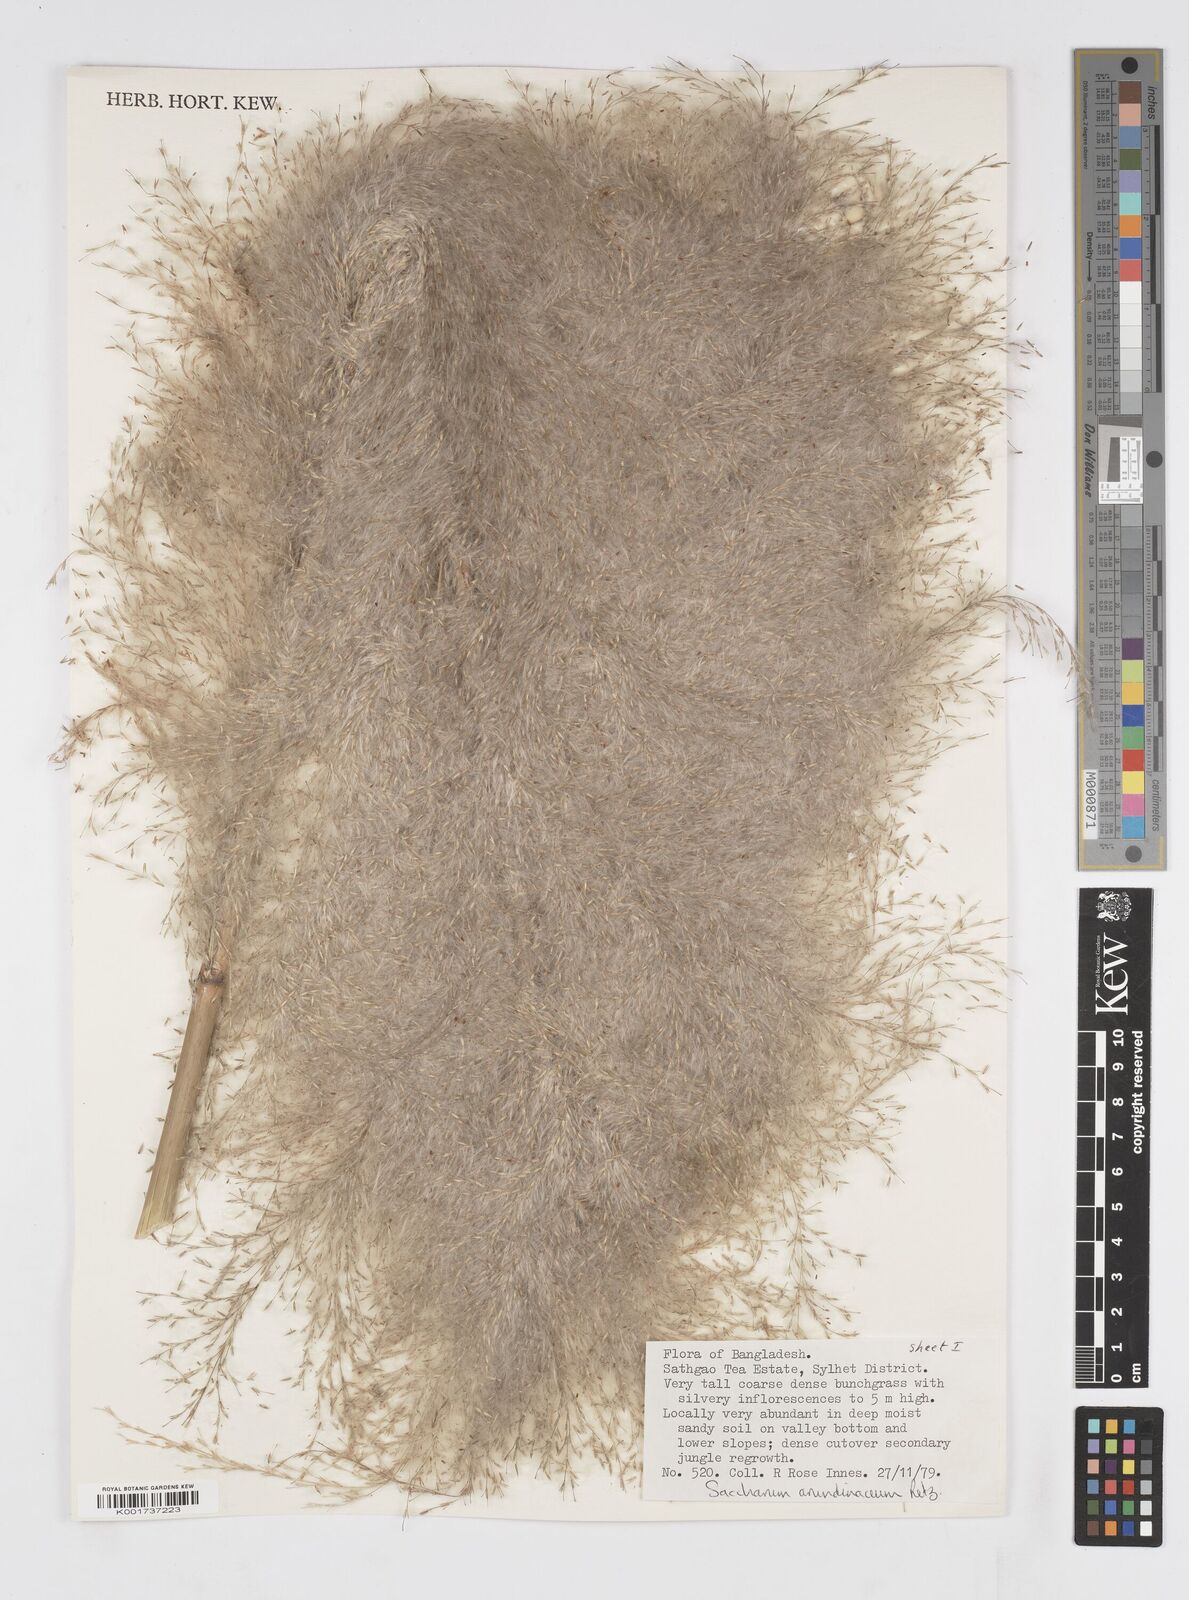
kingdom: Plantae
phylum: Tracheophyta
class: Liliopsida
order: Poales
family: Poaceae
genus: Tripidium
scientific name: Tripidium arundinaceum
